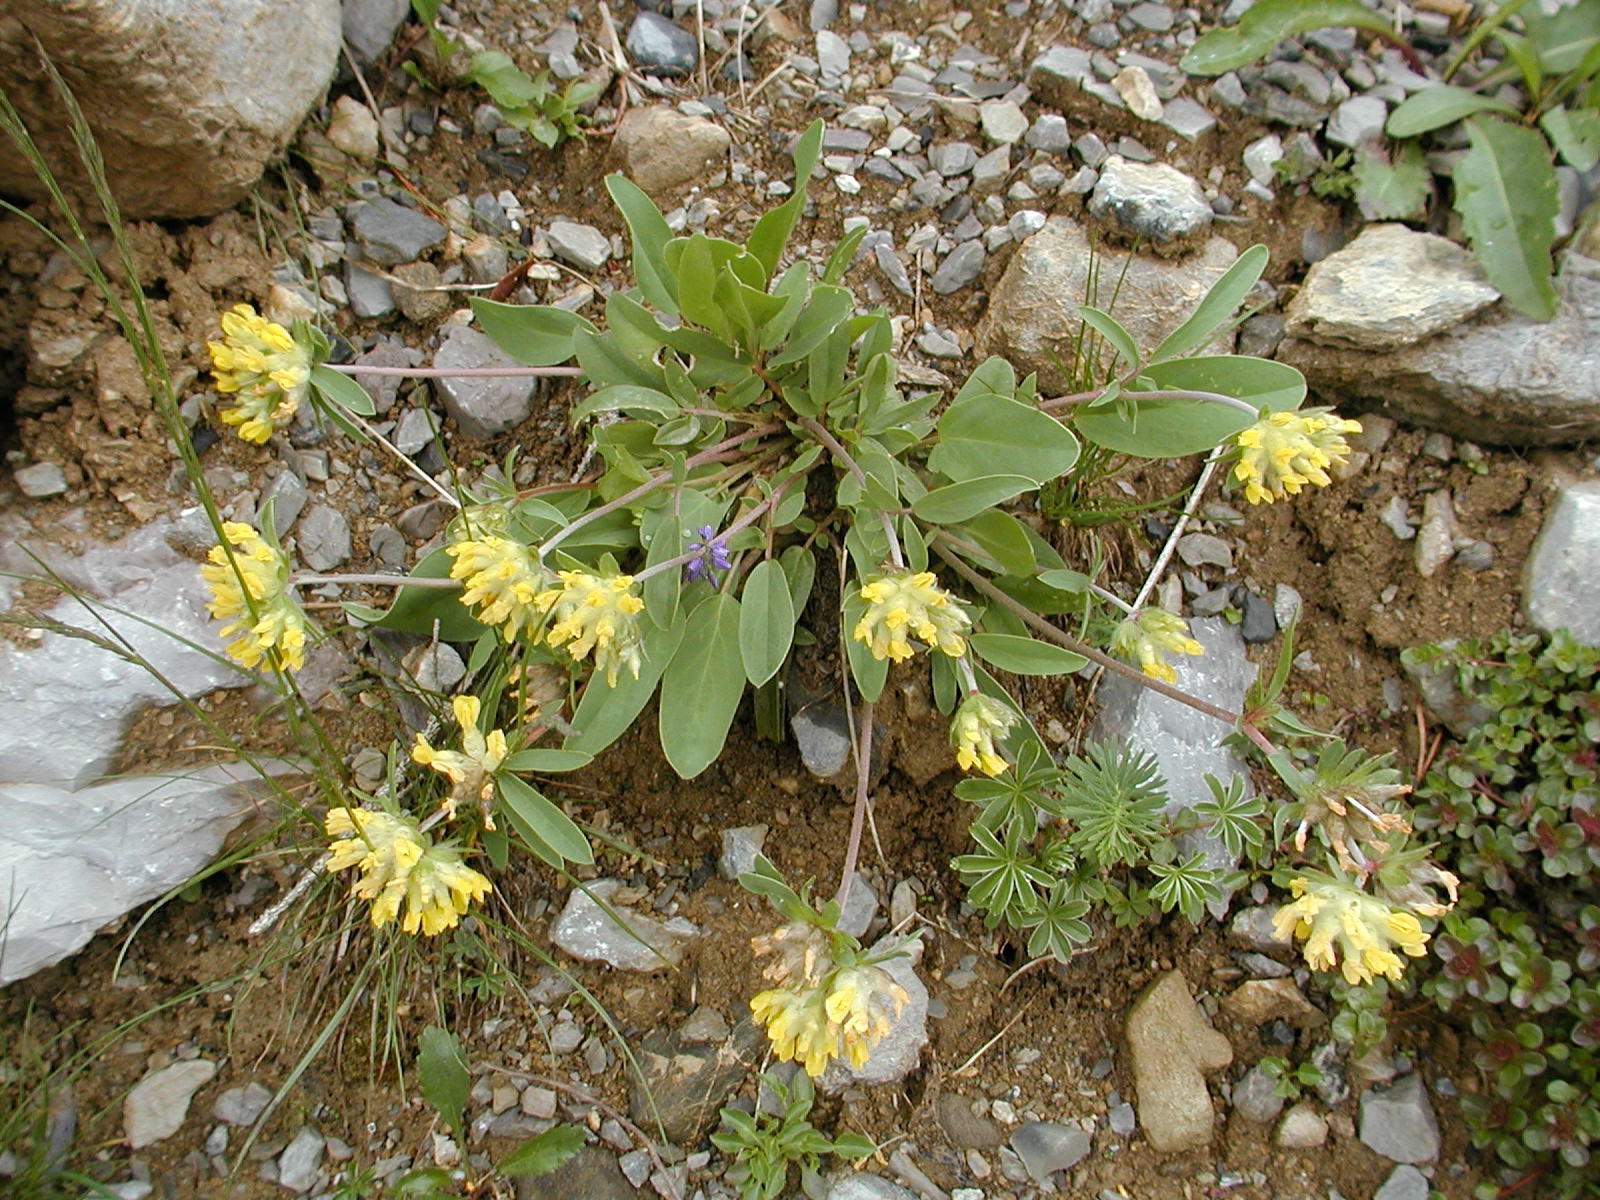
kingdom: Plantae
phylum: Tracheophyta
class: Magnoliopsida
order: Fabales
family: Fabaceae
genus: Anthyllis
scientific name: Anthyllis vulneraria
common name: Kidney vetch
